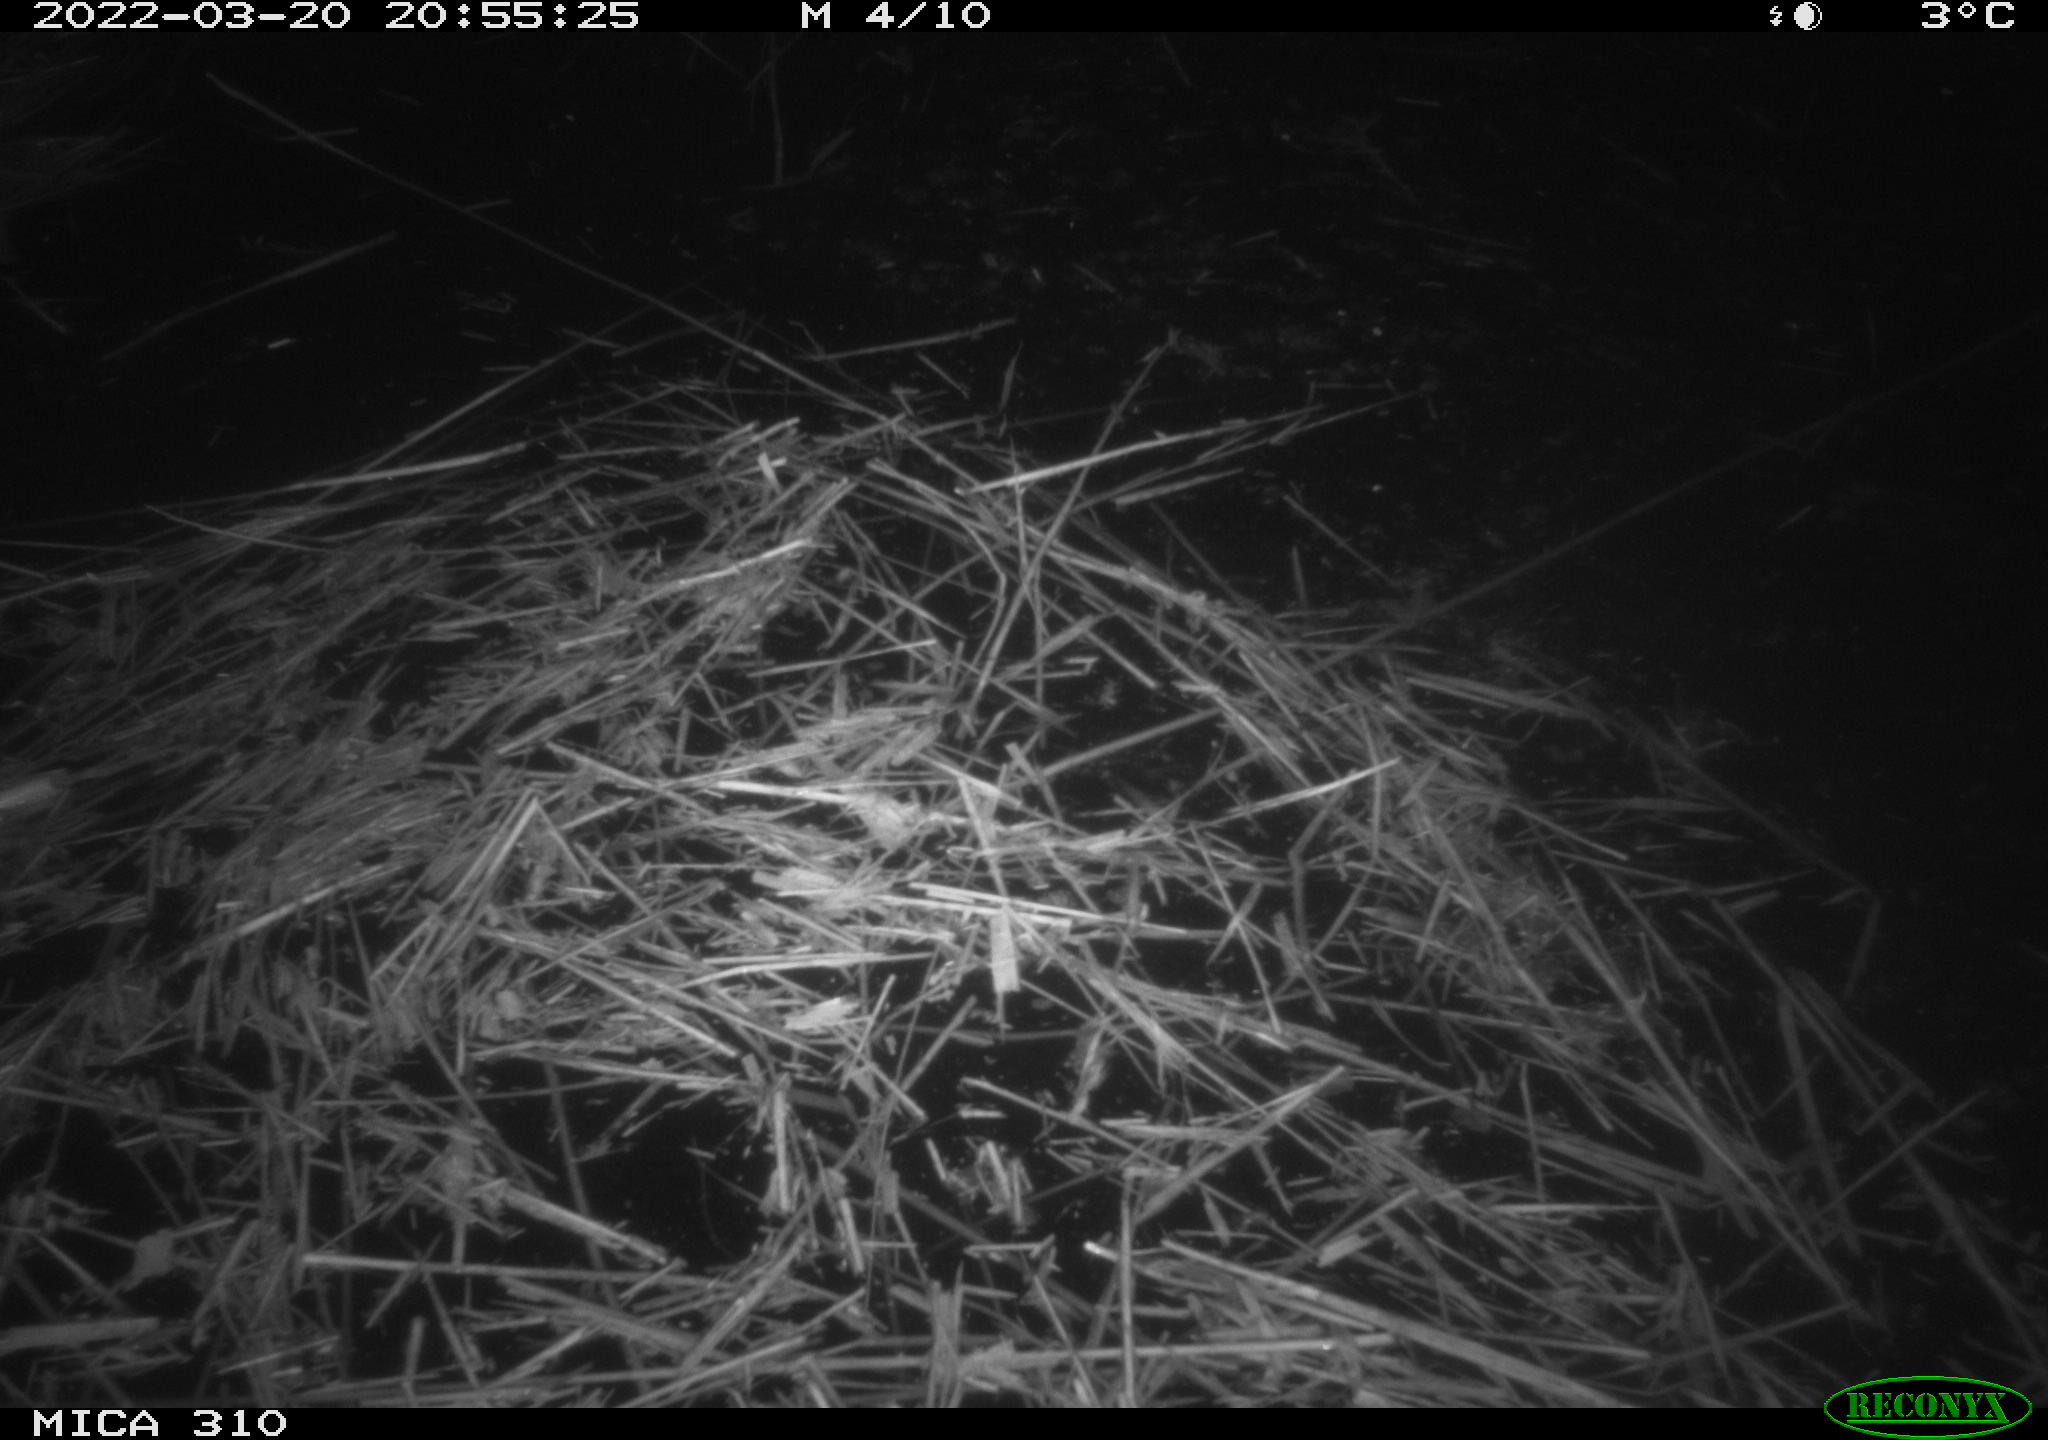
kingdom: Animalia
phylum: Chordata
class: Aves
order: Anseriformes
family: Anatidae
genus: Anas
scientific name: Anas platyrhynchos
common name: Mallard
